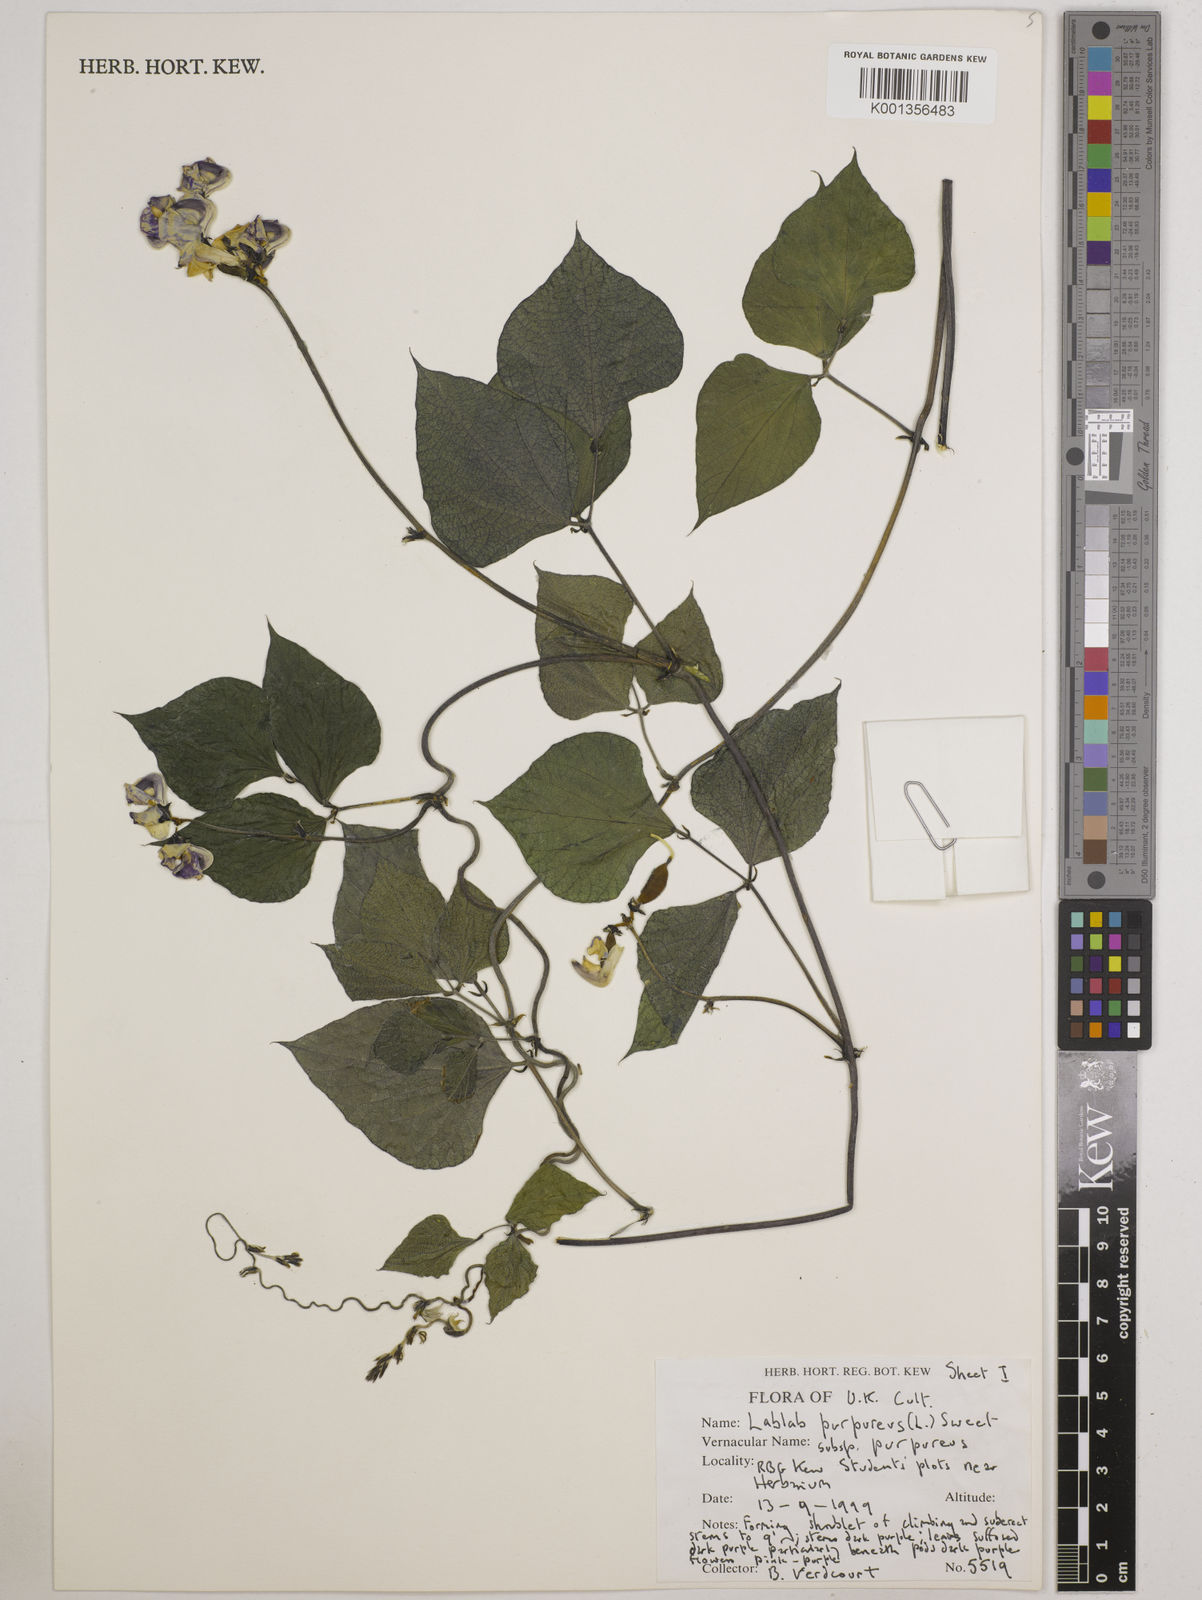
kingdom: Plantae
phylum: Tracheophyta
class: Magnoliopsida
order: Fabales
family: Fabaceae
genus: Lablab
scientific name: Lablab purpureus
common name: Lablab-bean
